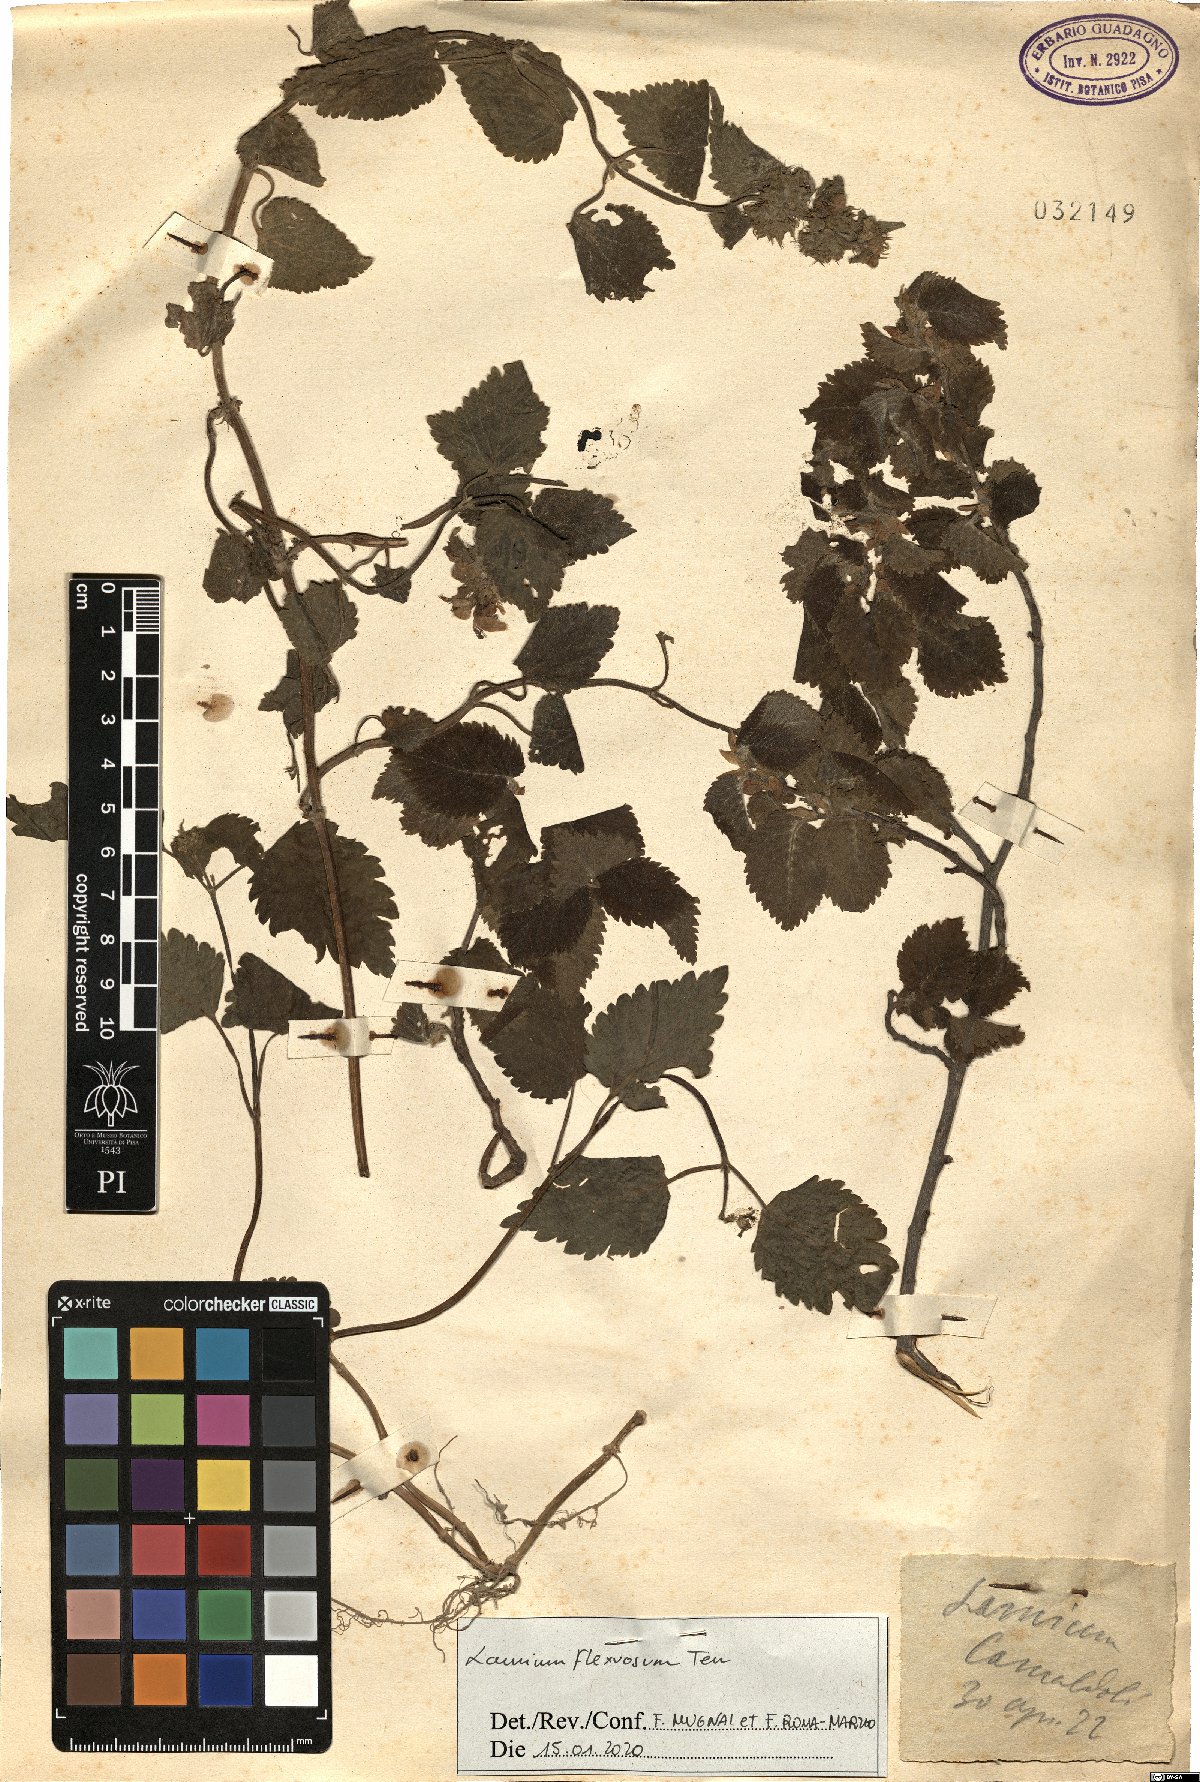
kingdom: Plantae
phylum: Tracheophyta
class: Magnoliopsida
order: Lamiales
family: Lamiaceae
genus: Lamium
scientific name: Lamium flexuosum
